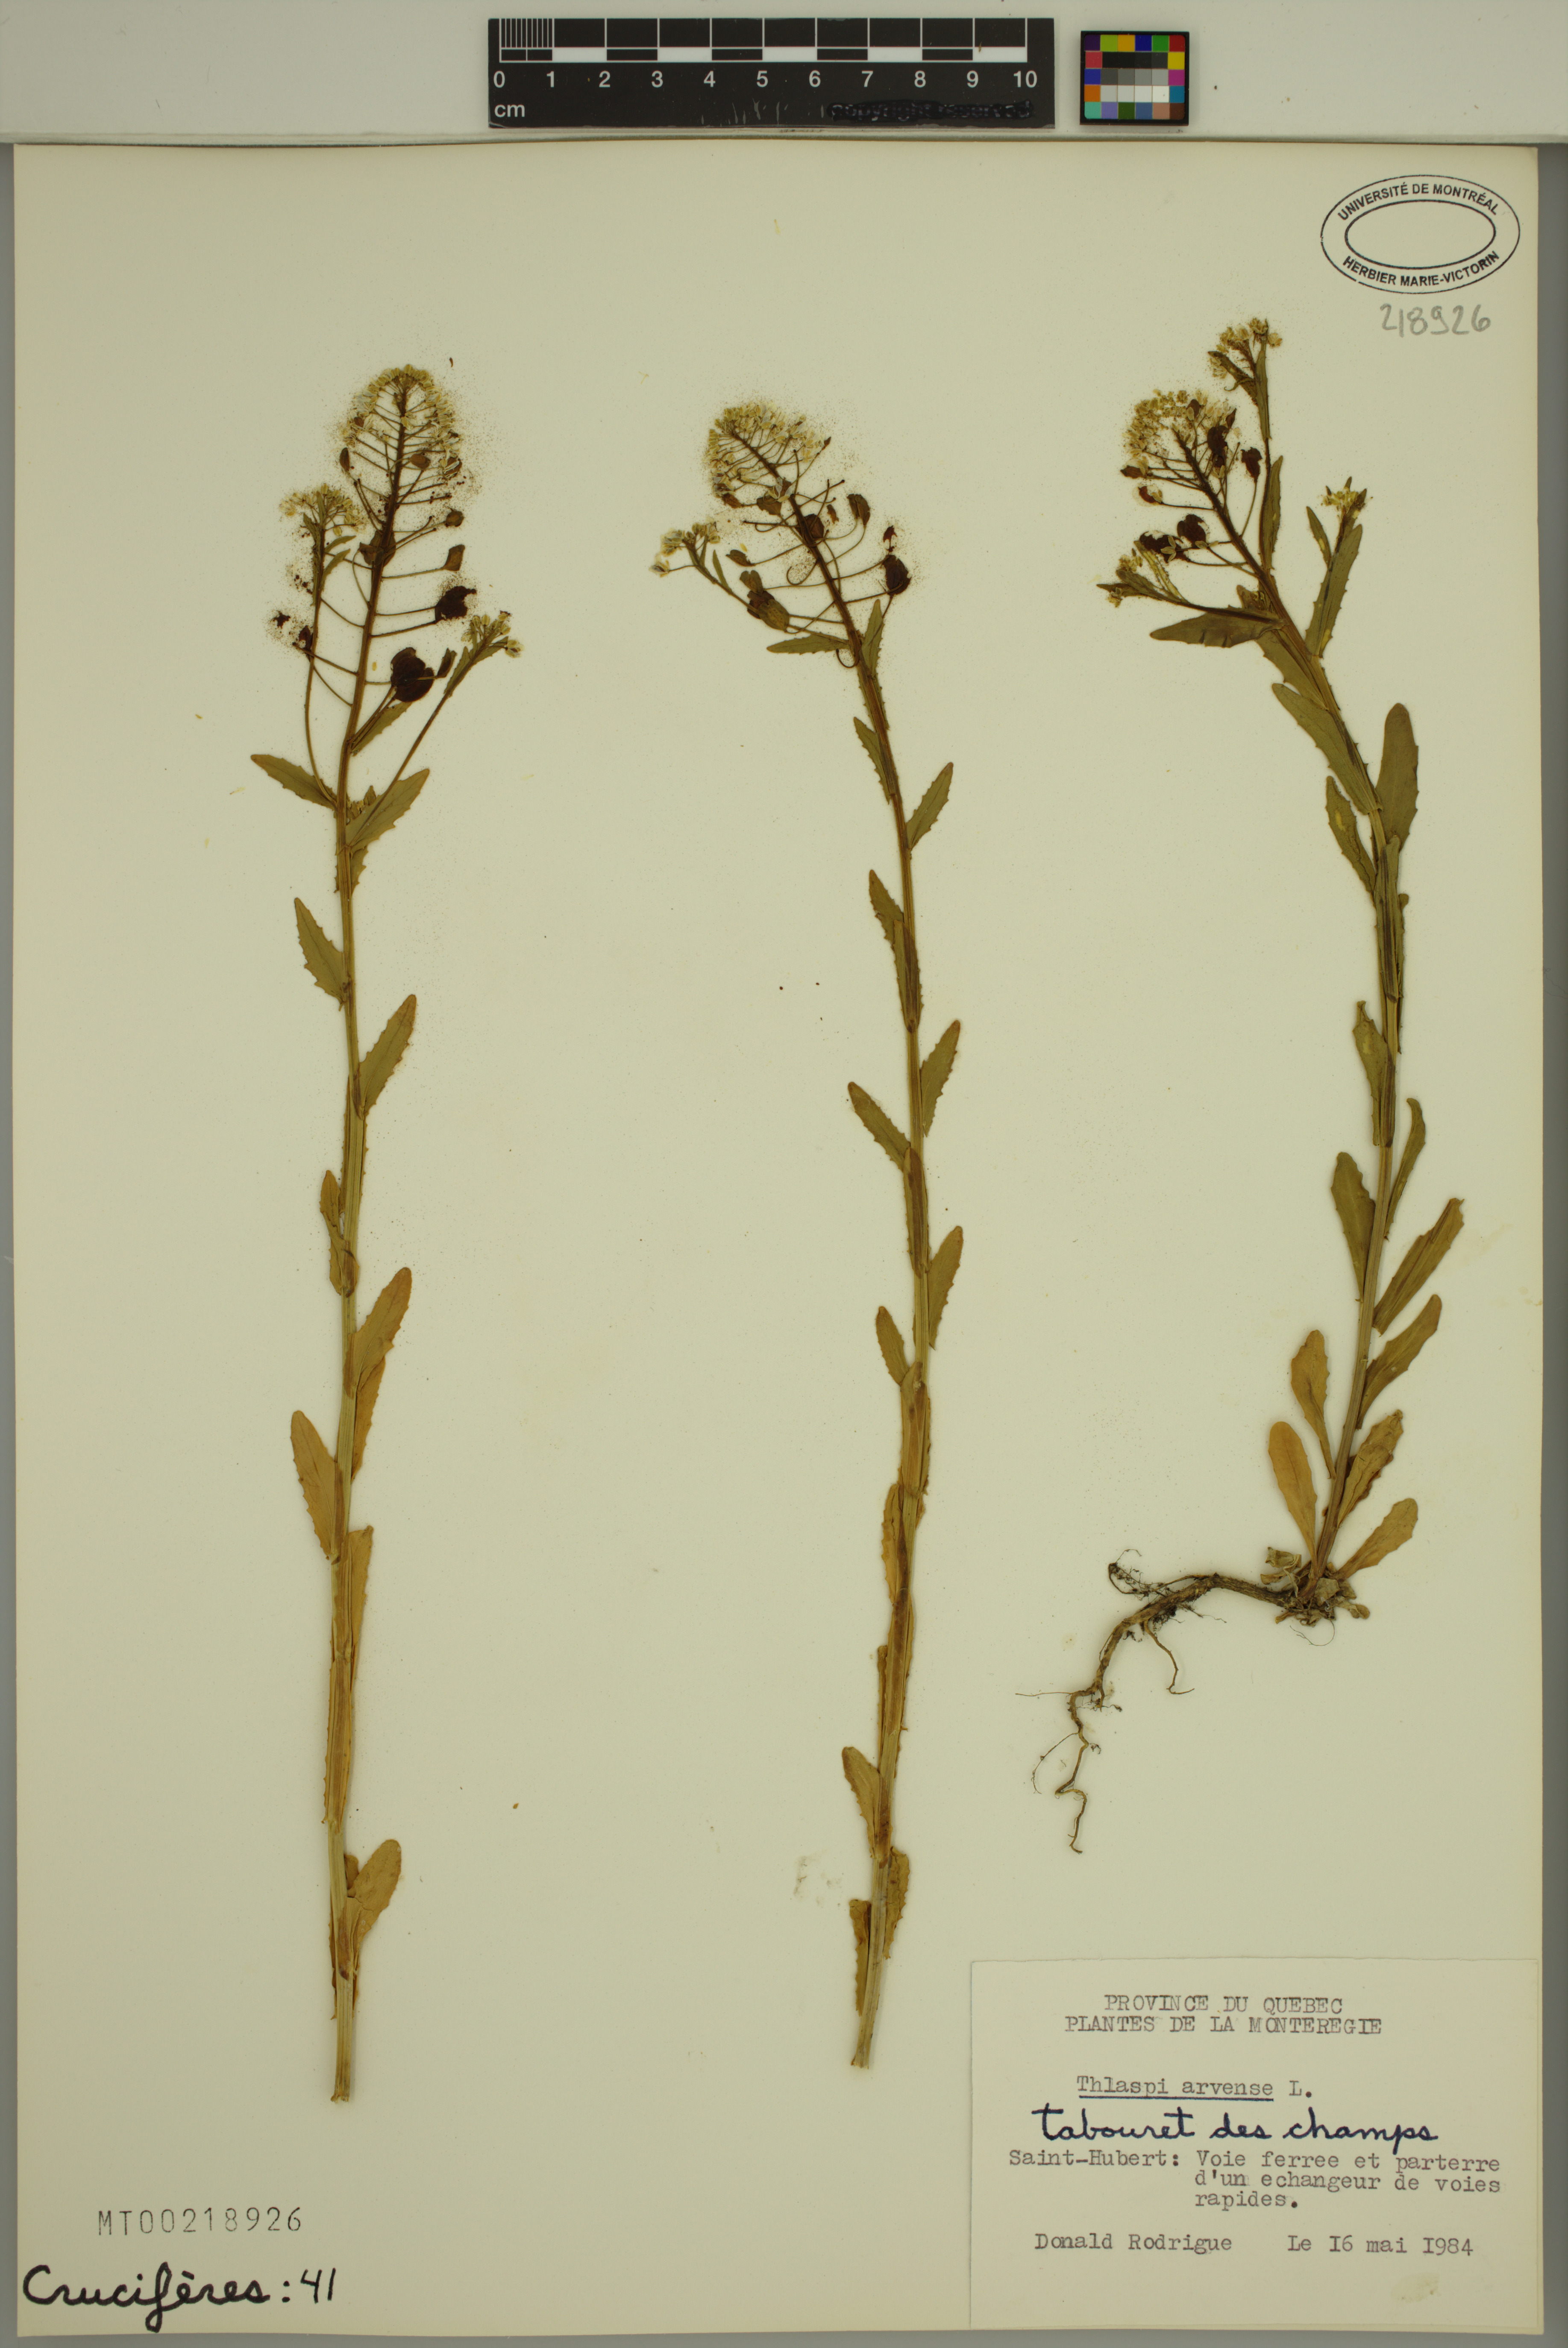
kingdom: Plantae
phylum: Tracheophyta
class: Magnoliopsida
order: Brassicales
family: Brassicaceae
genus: Thlaspi
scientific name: Thlaspi arvense
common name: Field pennycress
